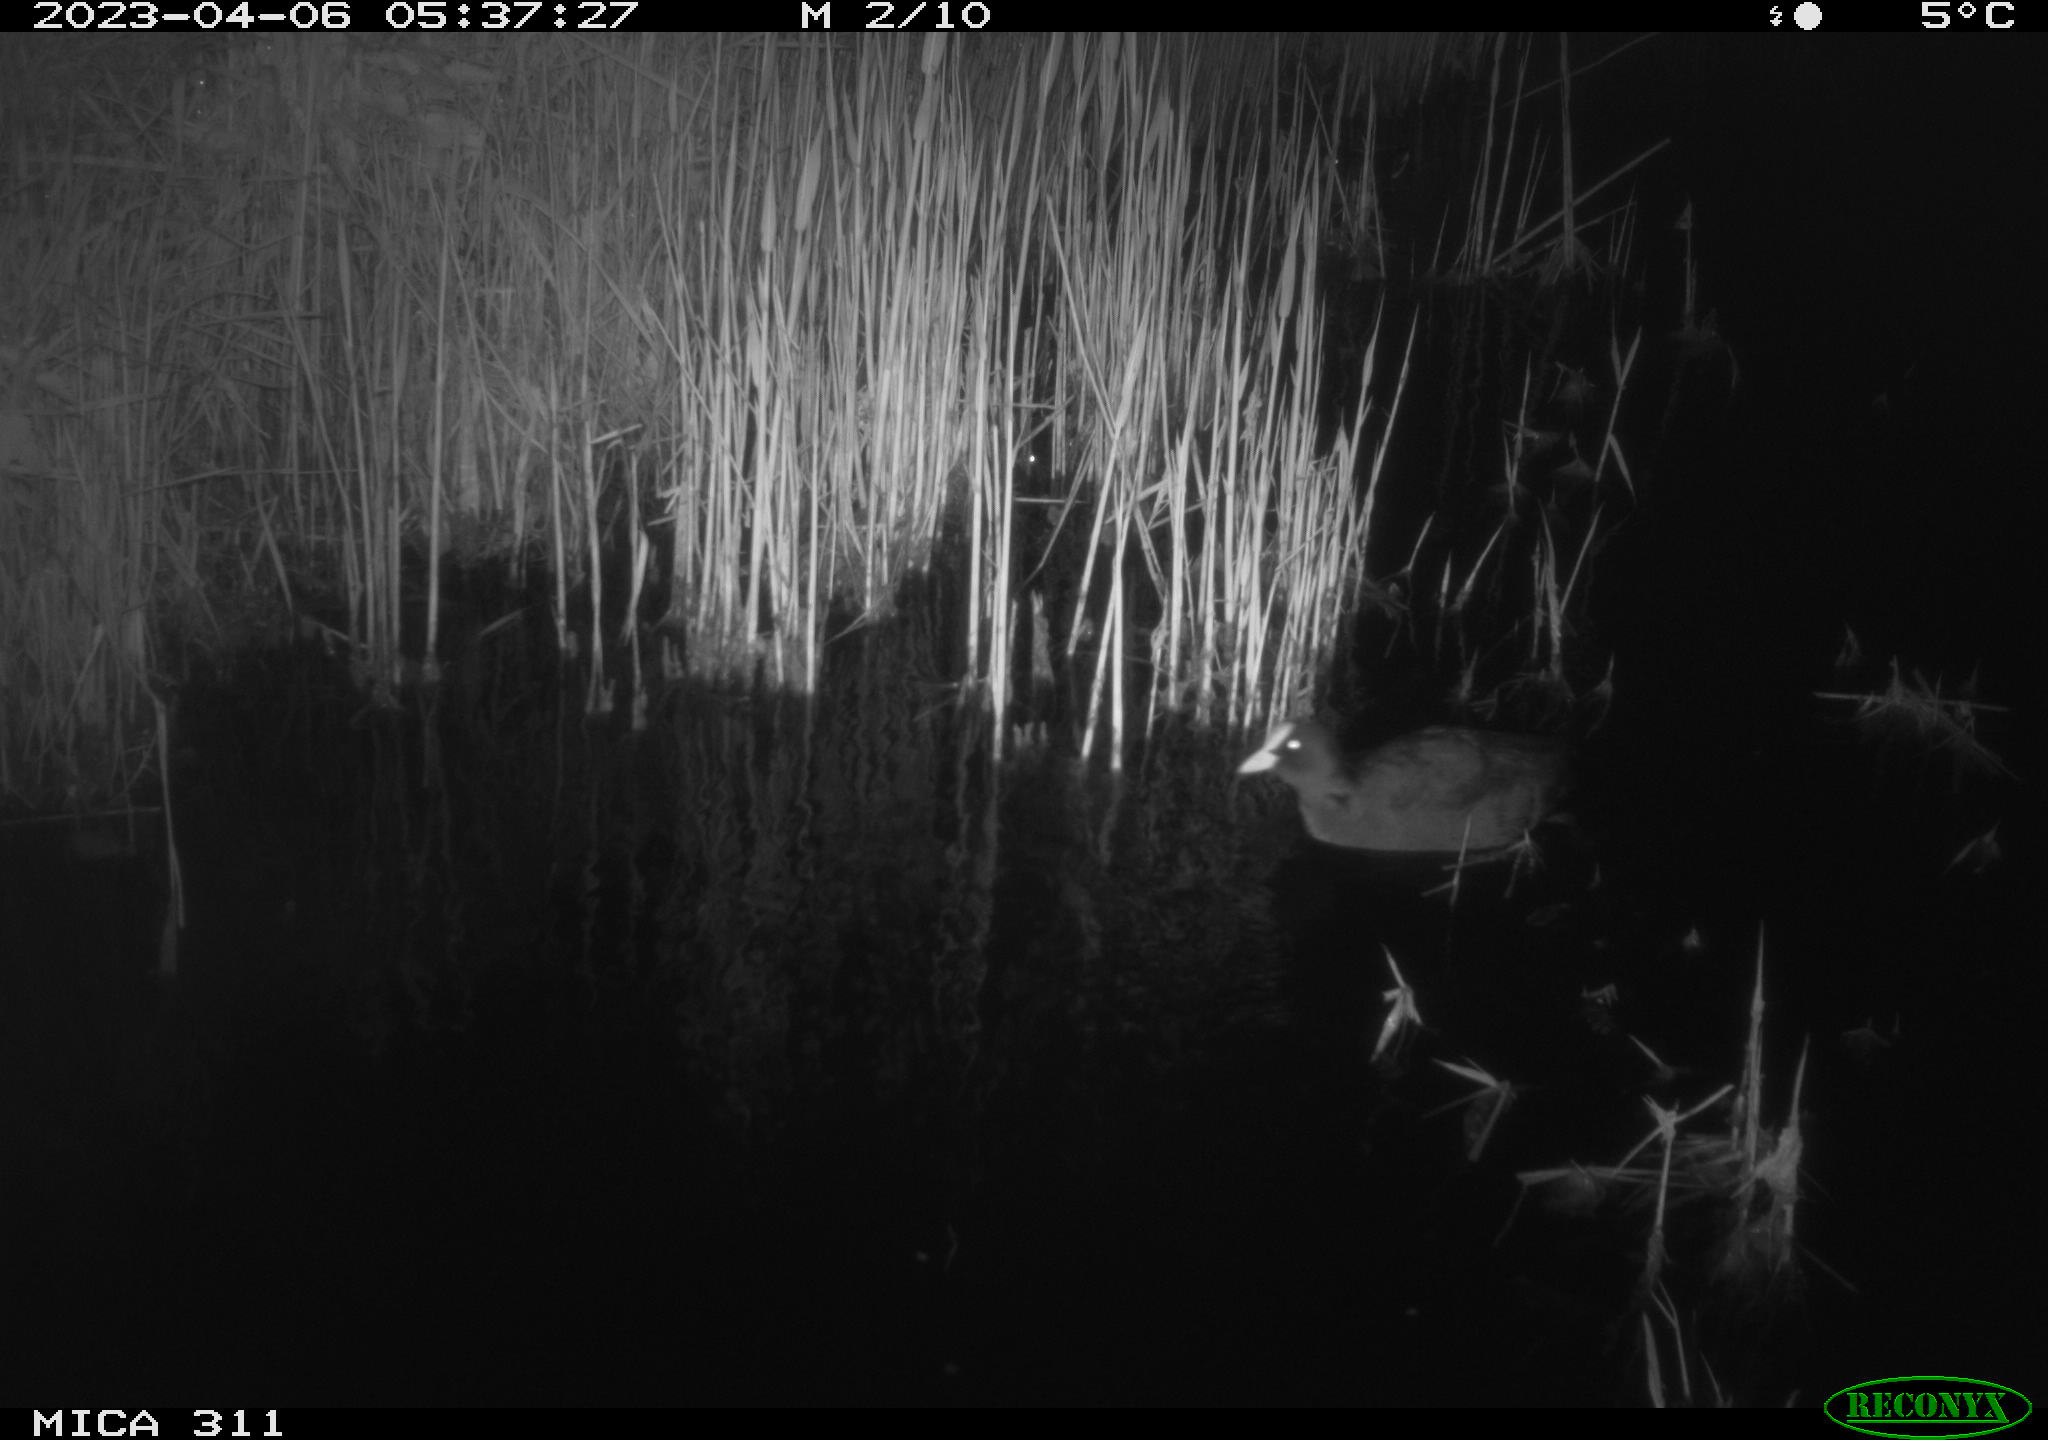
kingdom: Animalia
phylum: Chordata
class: Aves
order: Gruiformes
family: Rallidae
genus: Fulica
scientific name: Fulica atra
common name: Eurasian coot
